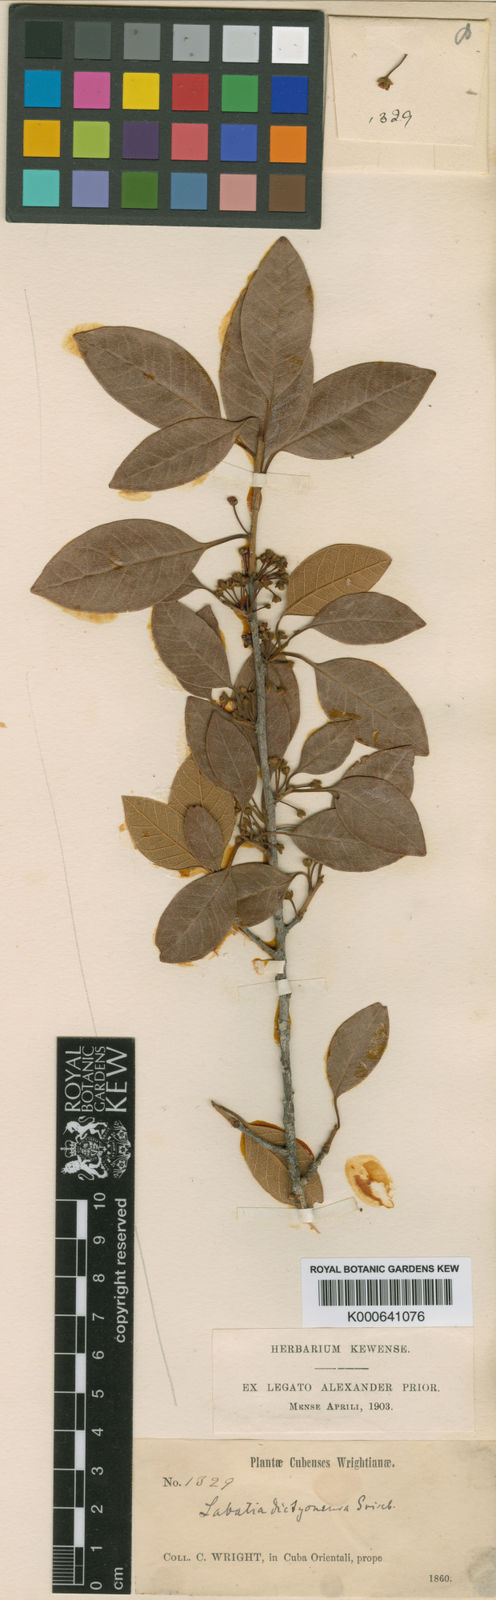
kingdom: Plantae
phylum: Tracheophyta
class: Magnoliopsida
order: Ericales
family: Sapotaceae
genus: Pouteria
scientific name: Pouteria dictyoneura
